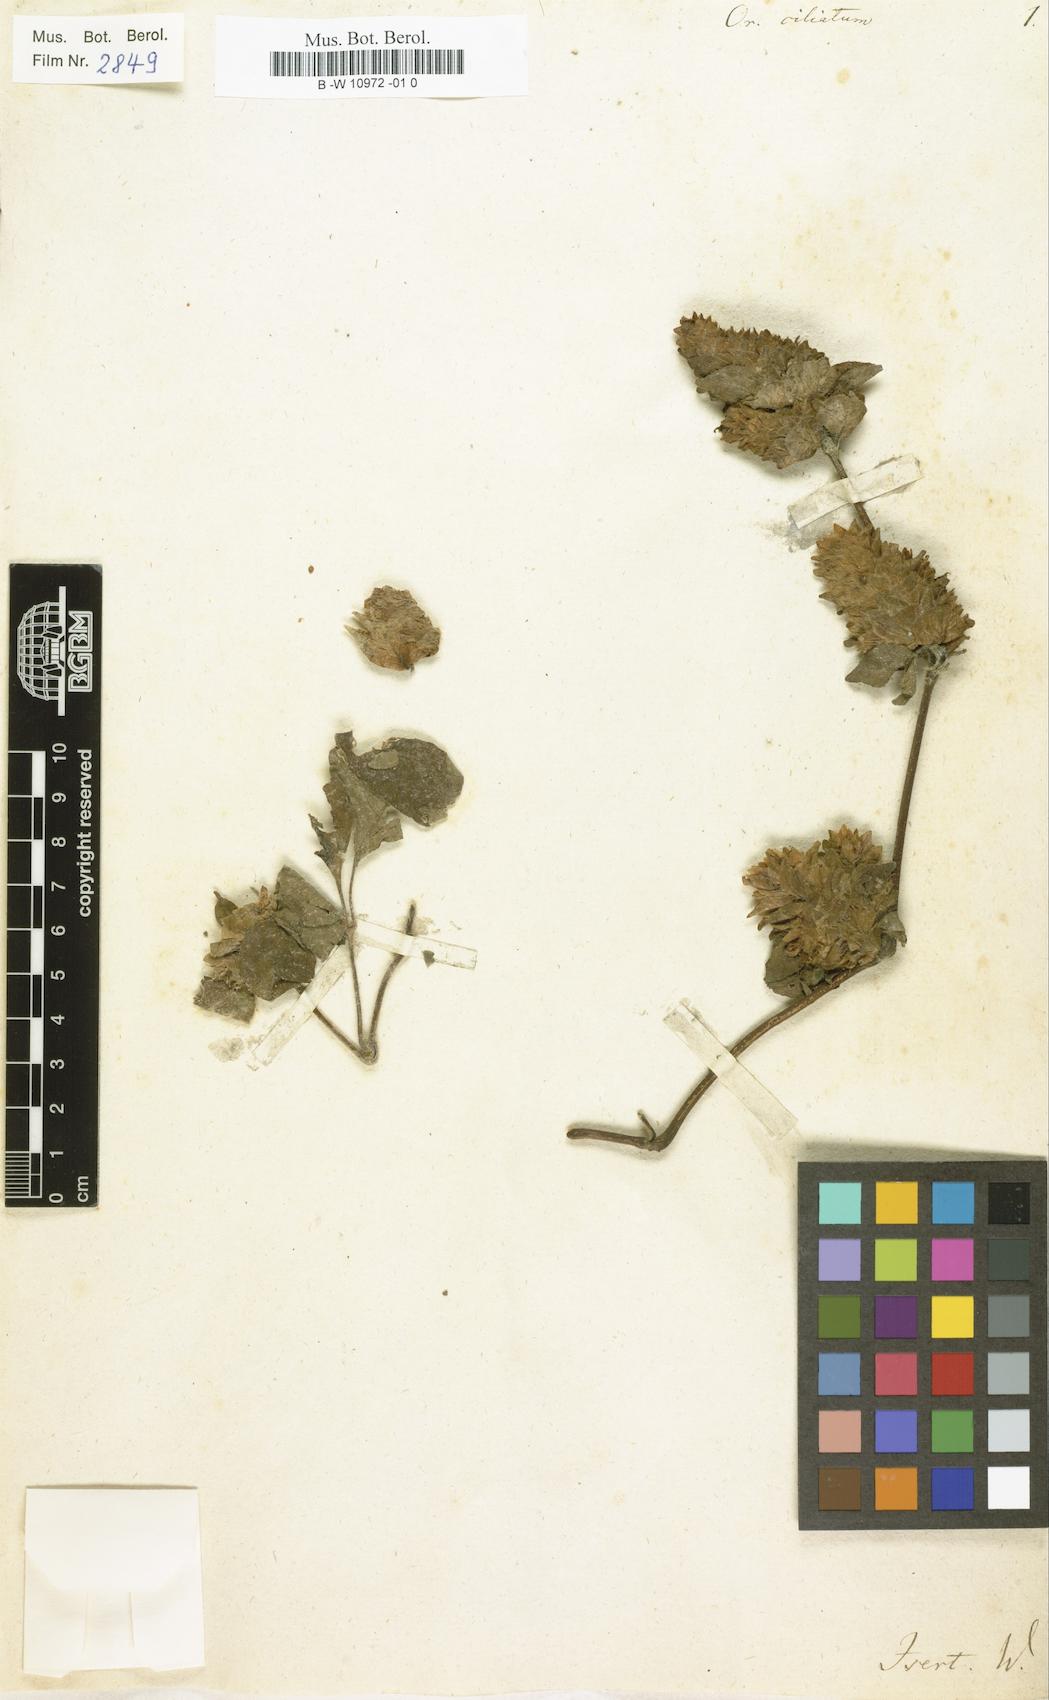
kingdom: Plantae
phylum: Tracheophyta
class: Magnoliopsida
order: Lamiales
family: Lamiaceae
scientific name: Lamiaceae
